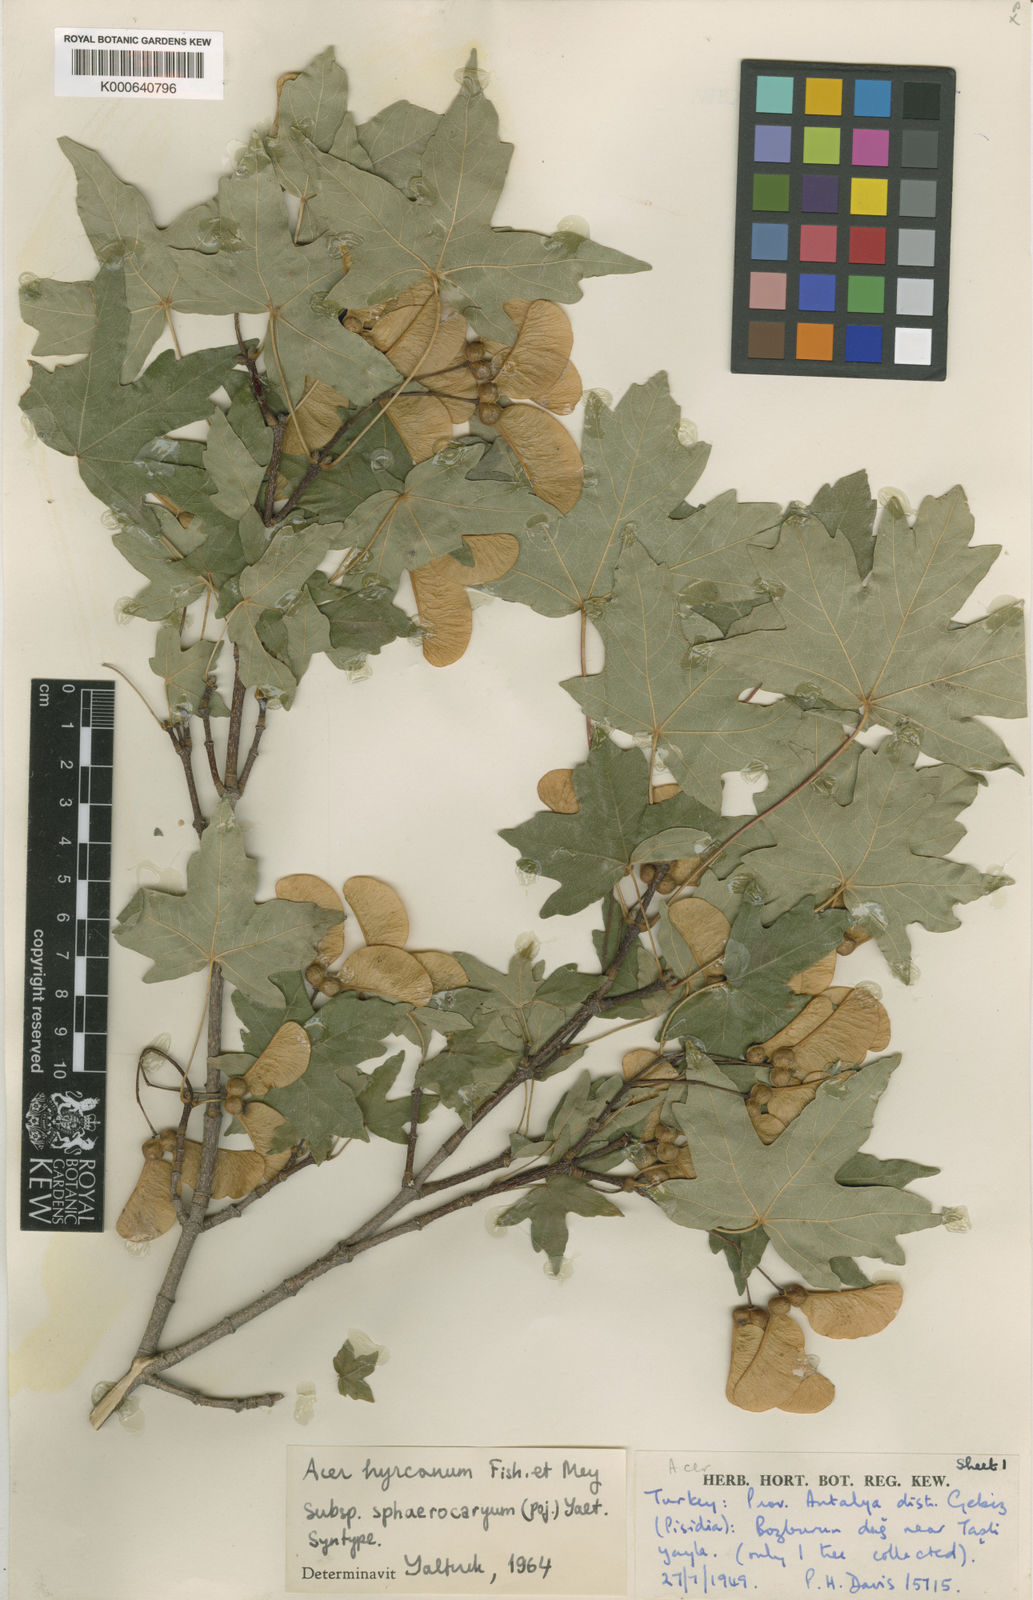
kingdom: Plantae
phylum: Tracheophyta
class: Magnoliopsida
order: Sapindales
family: Sapindaceae
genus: Acer
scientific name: Acer hyrcanum
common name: Balkan maple
